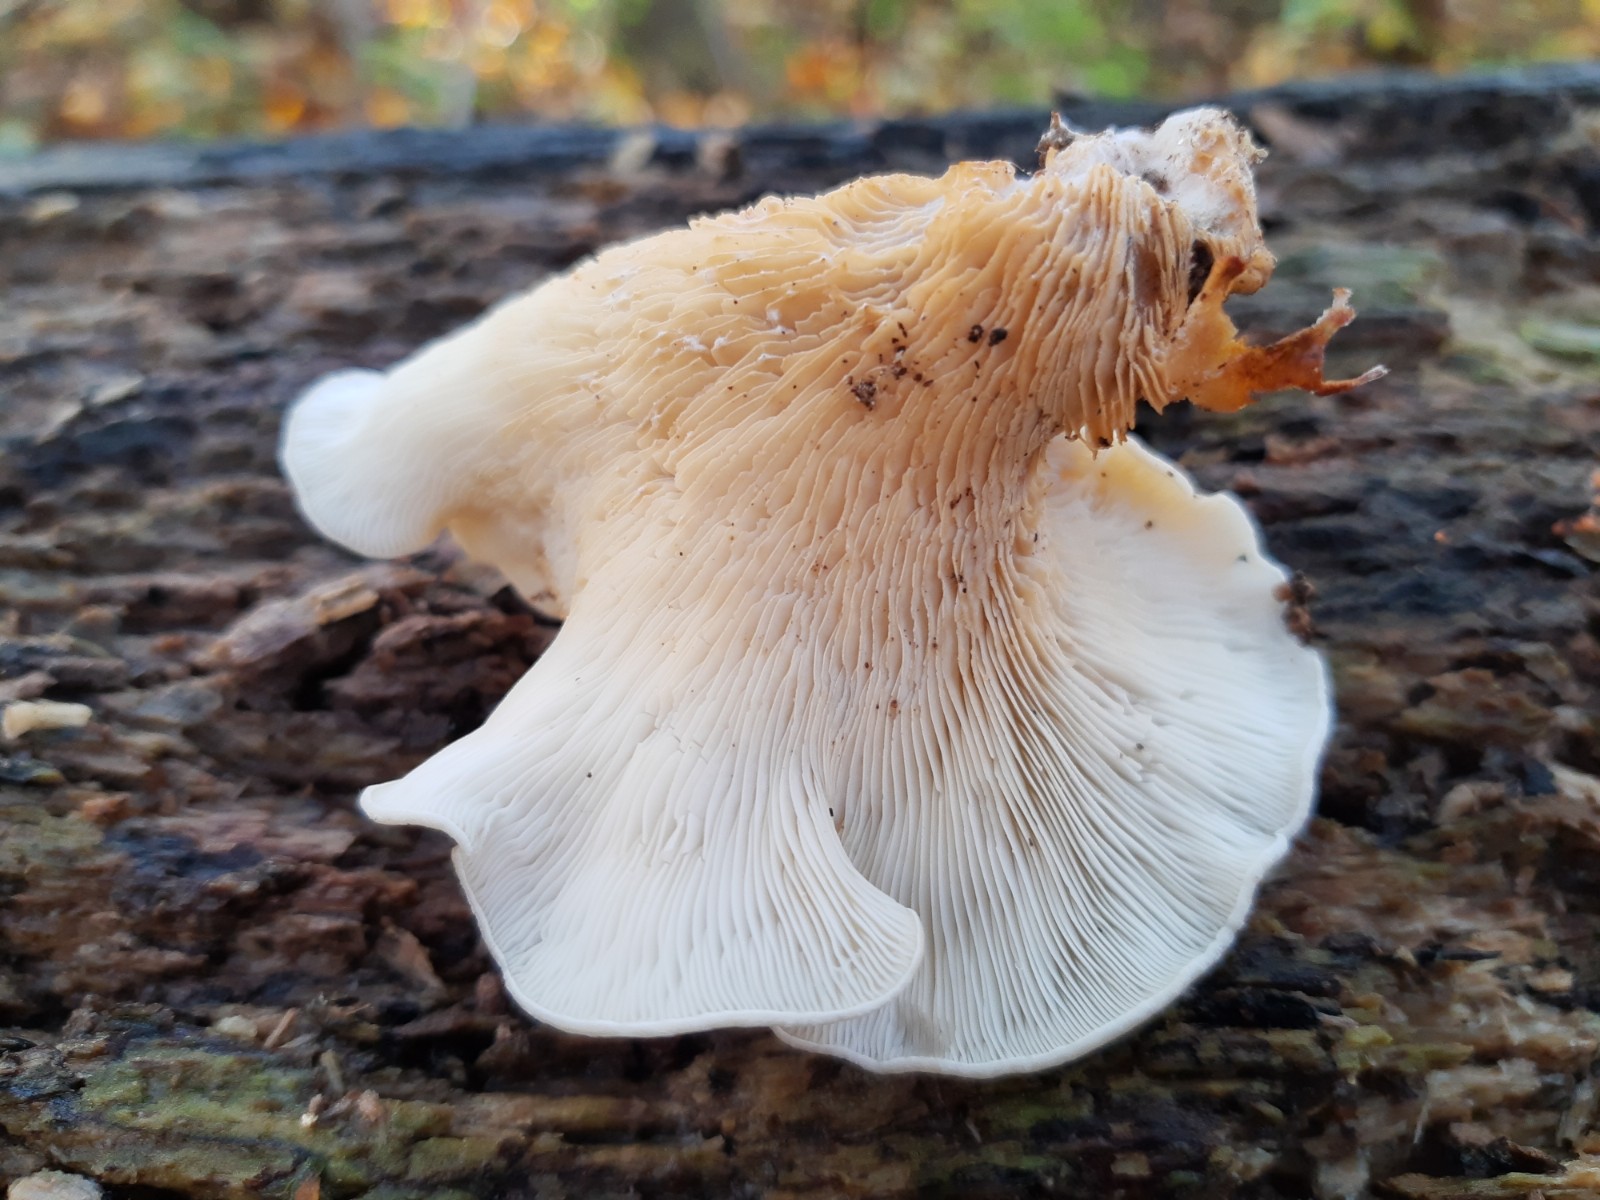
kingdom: Fungi
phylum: Basidiomycota
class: Agaricomycetes
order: Agaricales
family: Pleurotaceae
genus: Pleurotus
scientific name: Pleurotus pulmonarius
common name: sommer-østershat
